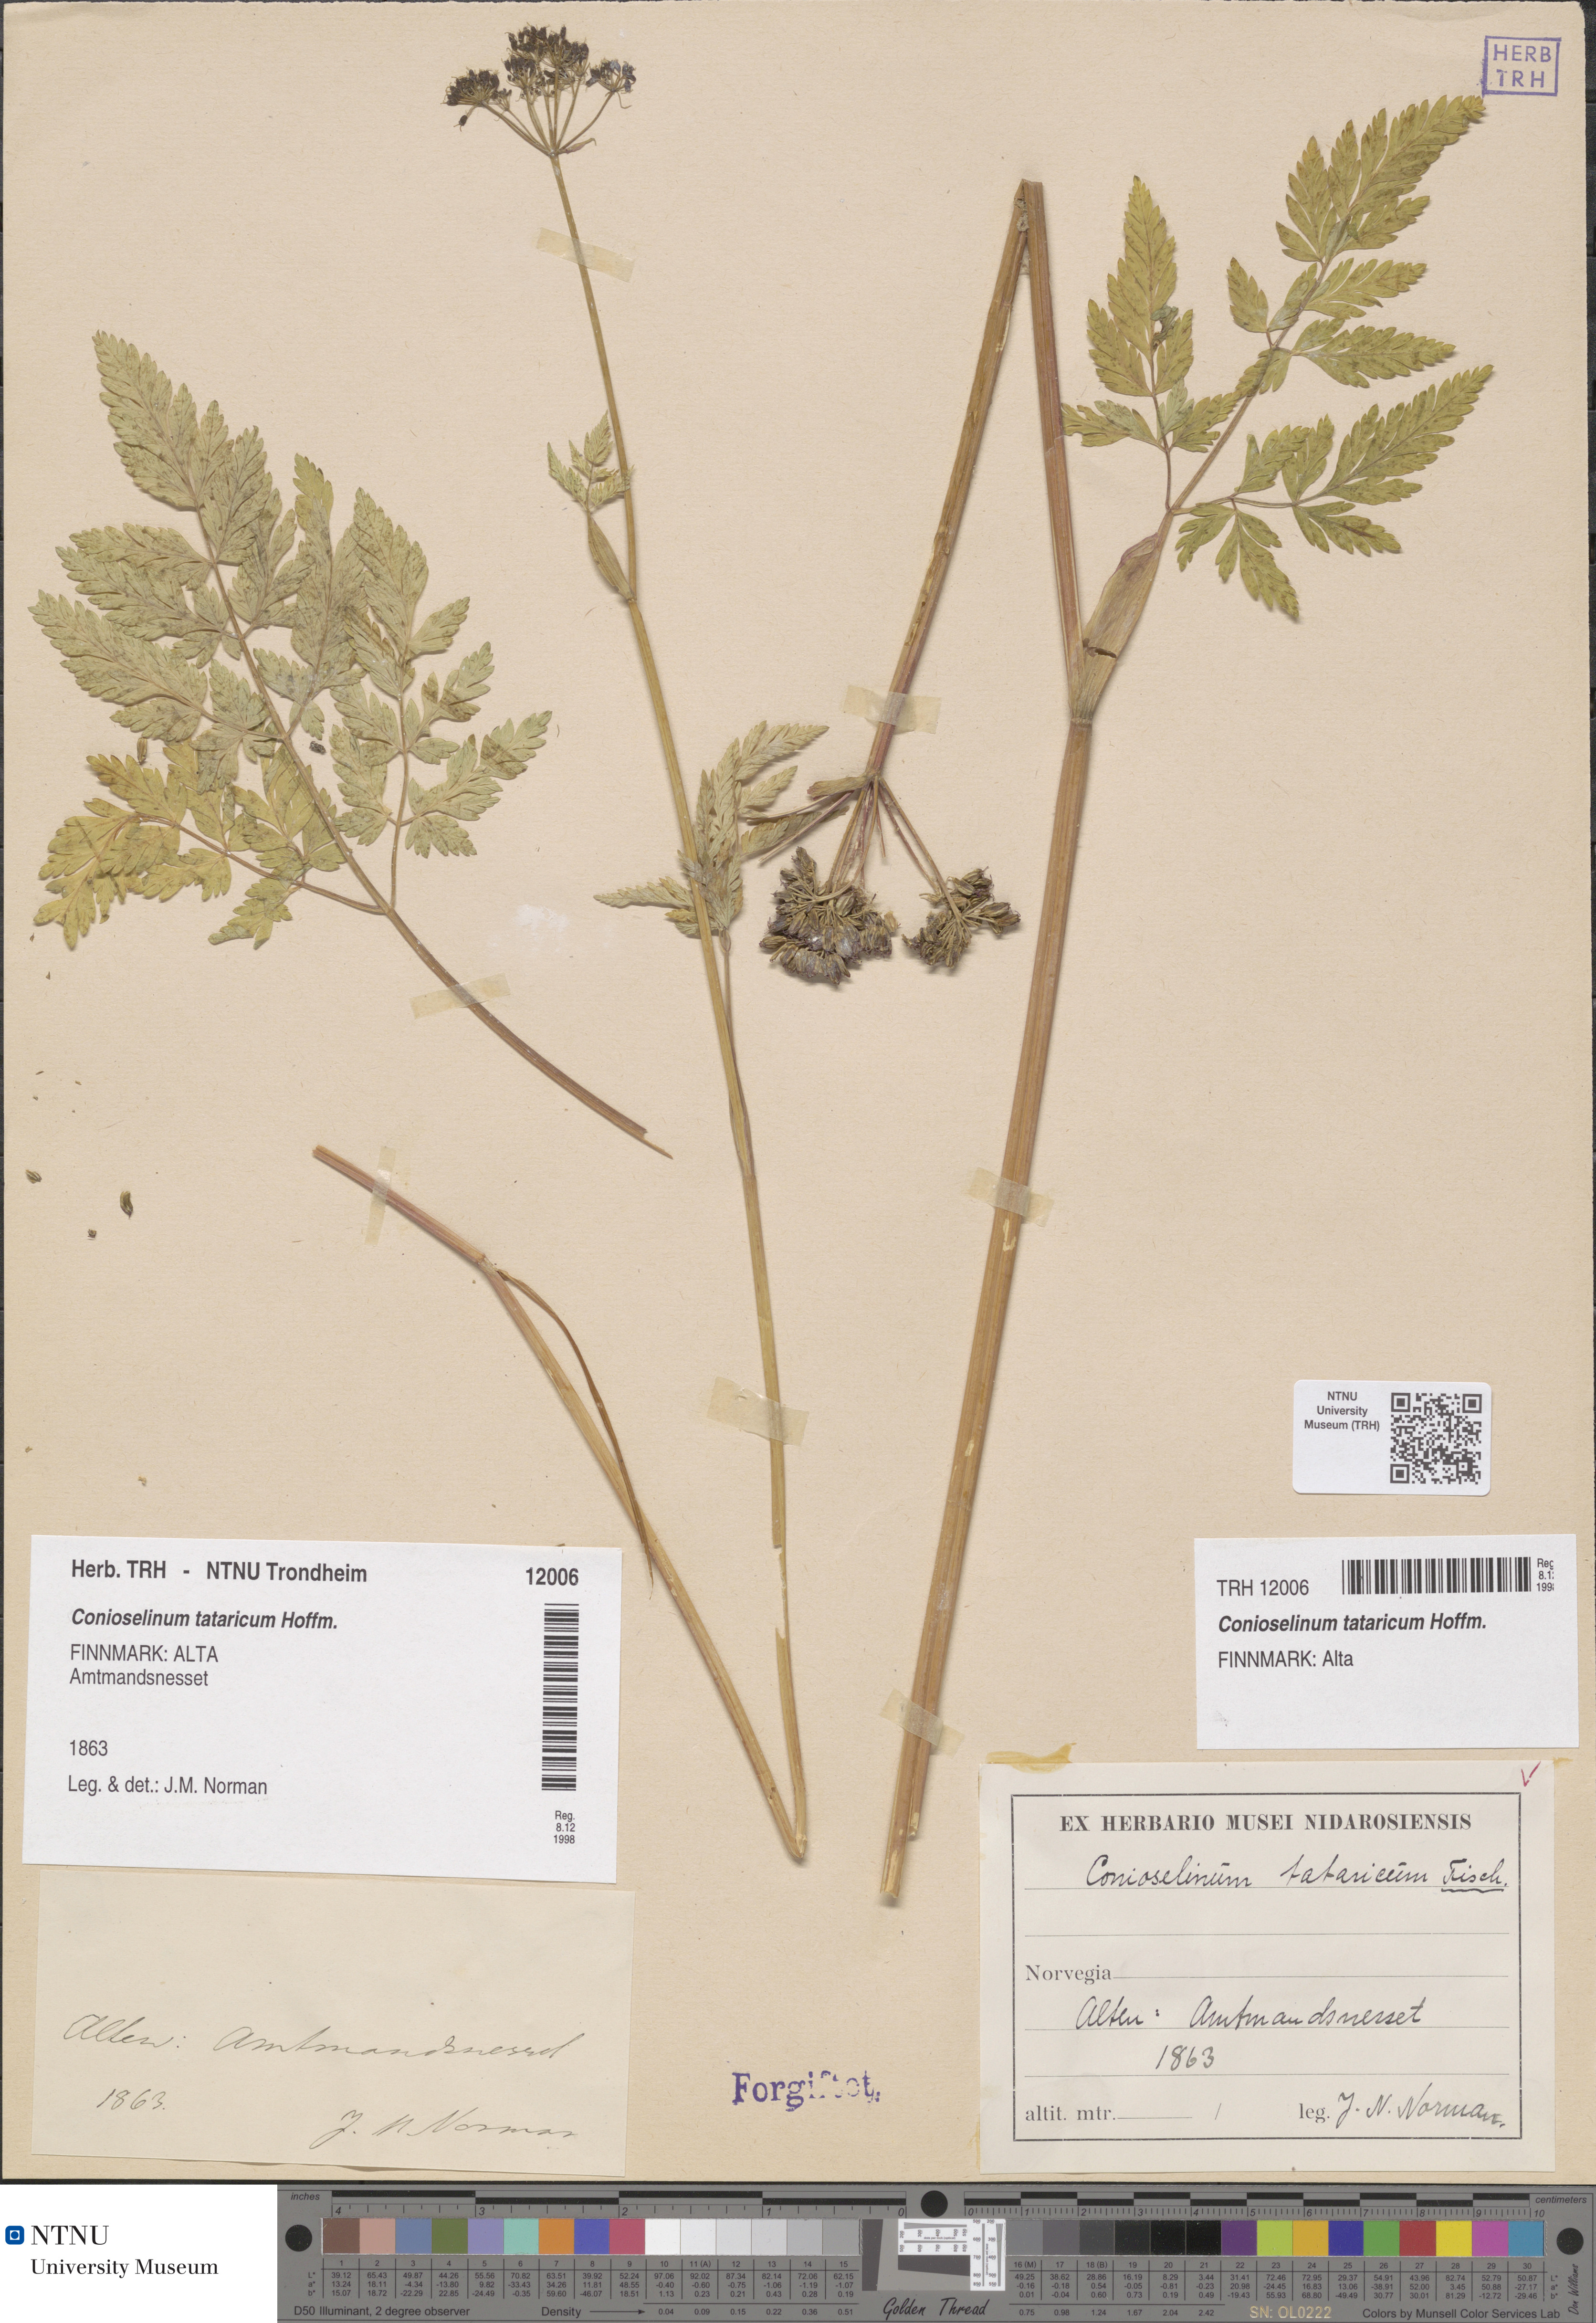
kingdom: Plantae
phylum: Tracheophyta
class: Magnoliopsida
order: Apiales
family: Apiaceae
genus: Seseli
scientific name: Seseli condensatum
